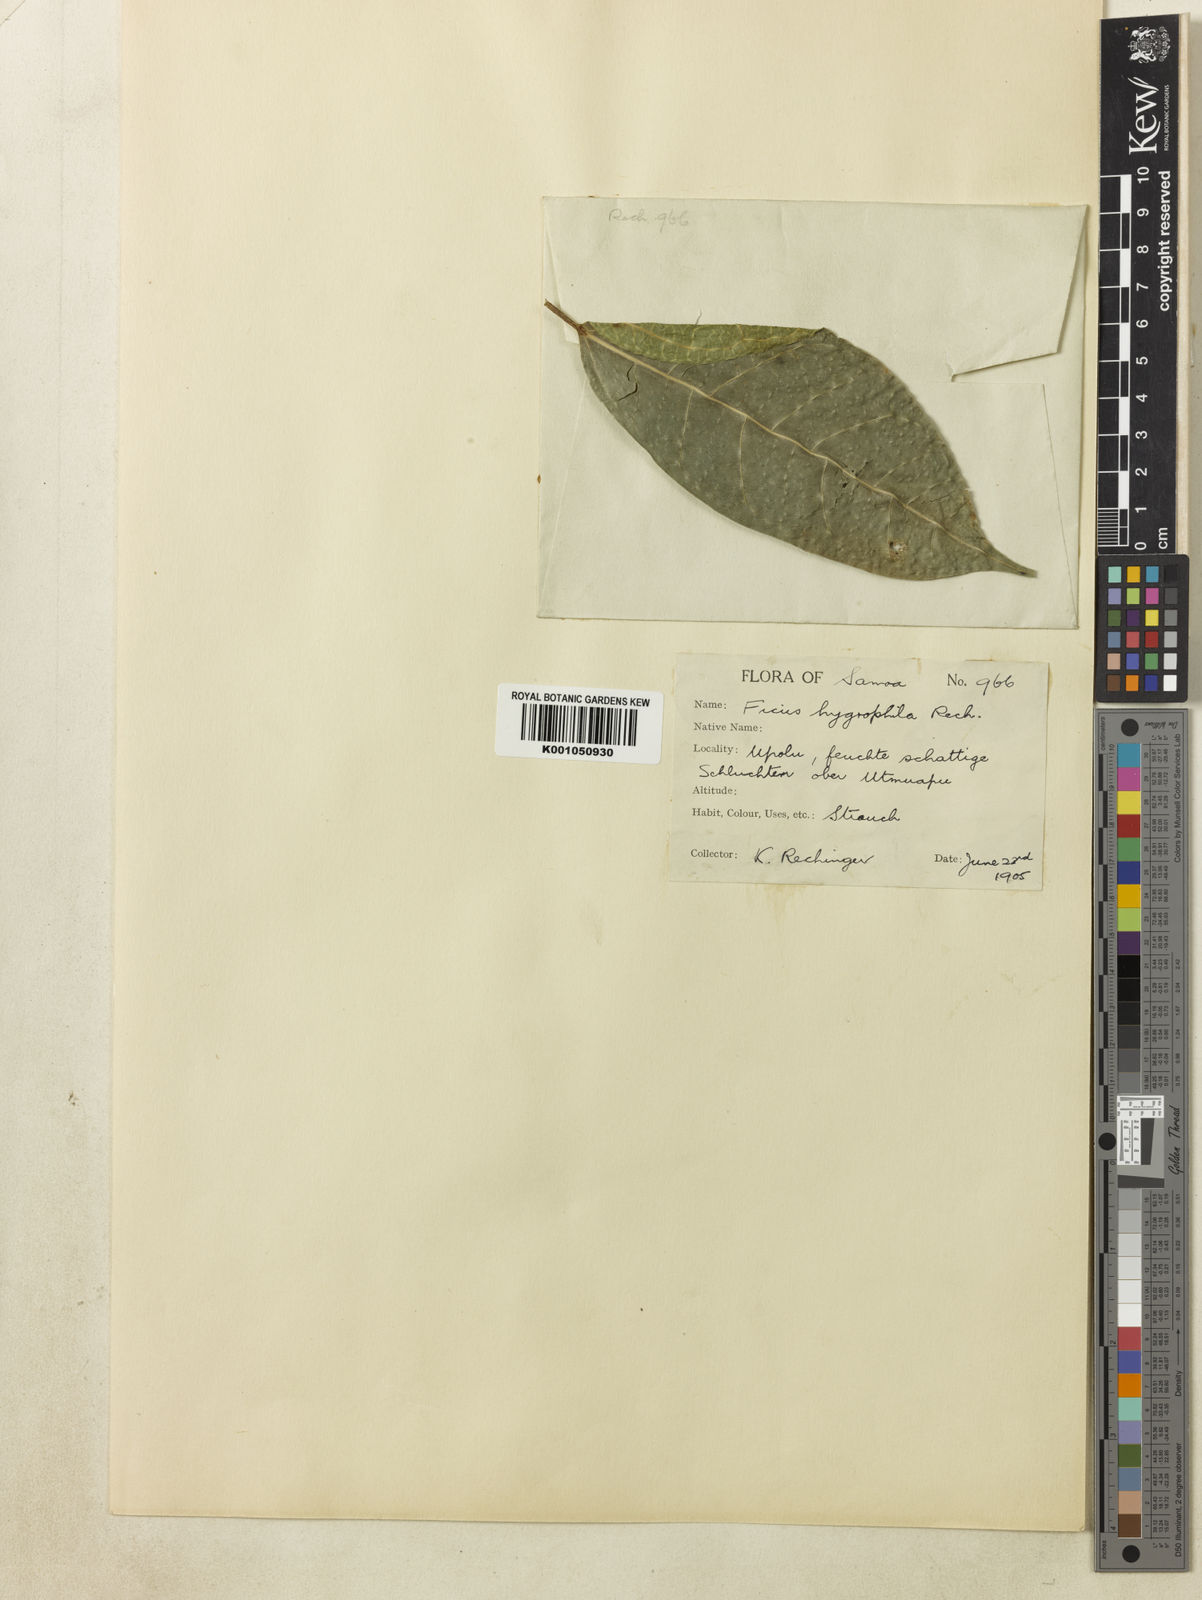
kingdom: Plantae
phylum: Tracheophyta
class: Magnoliopsida
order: Rosales
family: Moraceae
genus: Ficus
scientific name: Ficus godeffroyi
